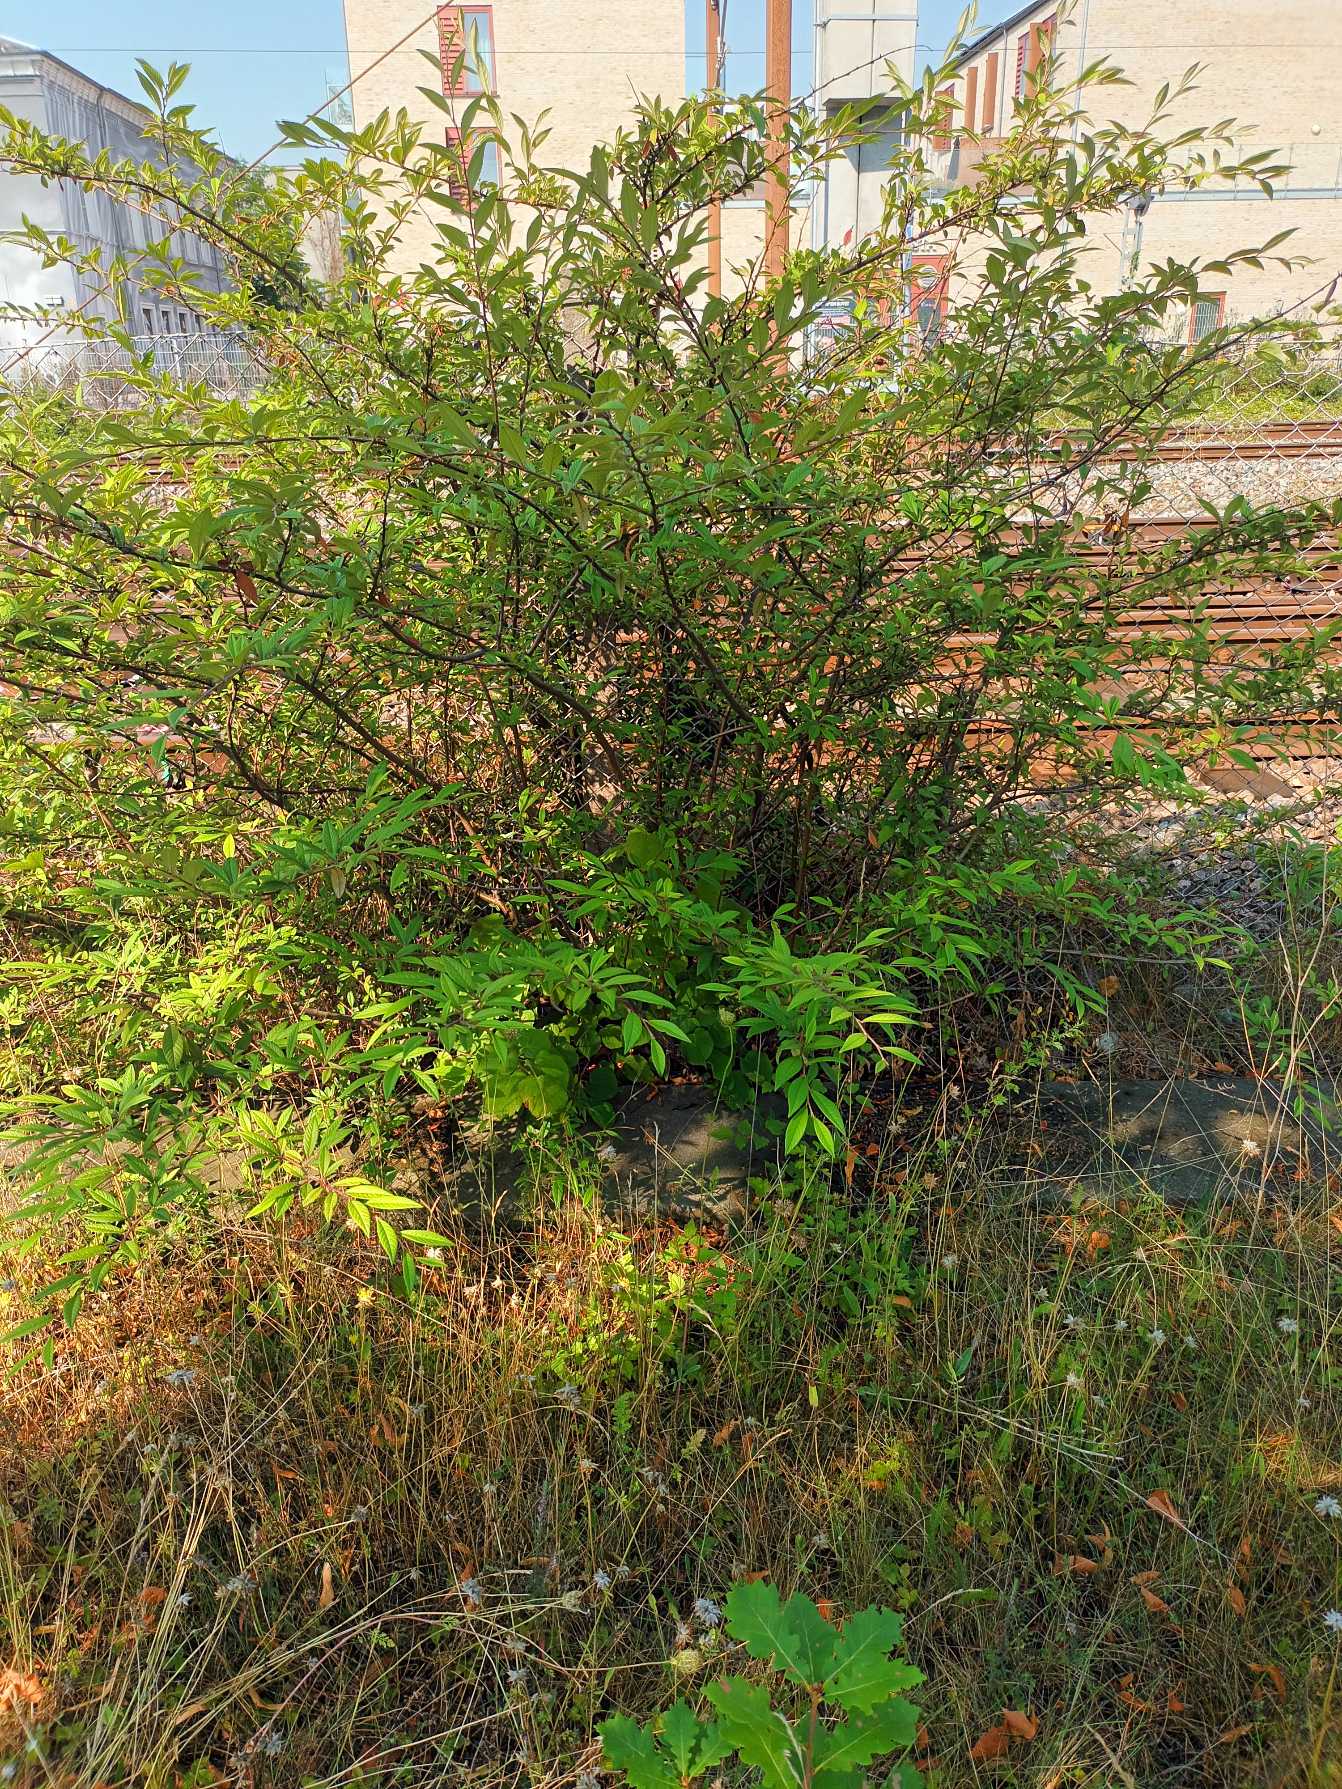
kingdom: Plantae
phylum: Tracheophyta
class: Magnoliopsida
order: Rosales
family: Rosaceae
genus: Cotoneaster
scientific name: Cotoneaster salicifolius
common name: Pilebladet dværgmispel
